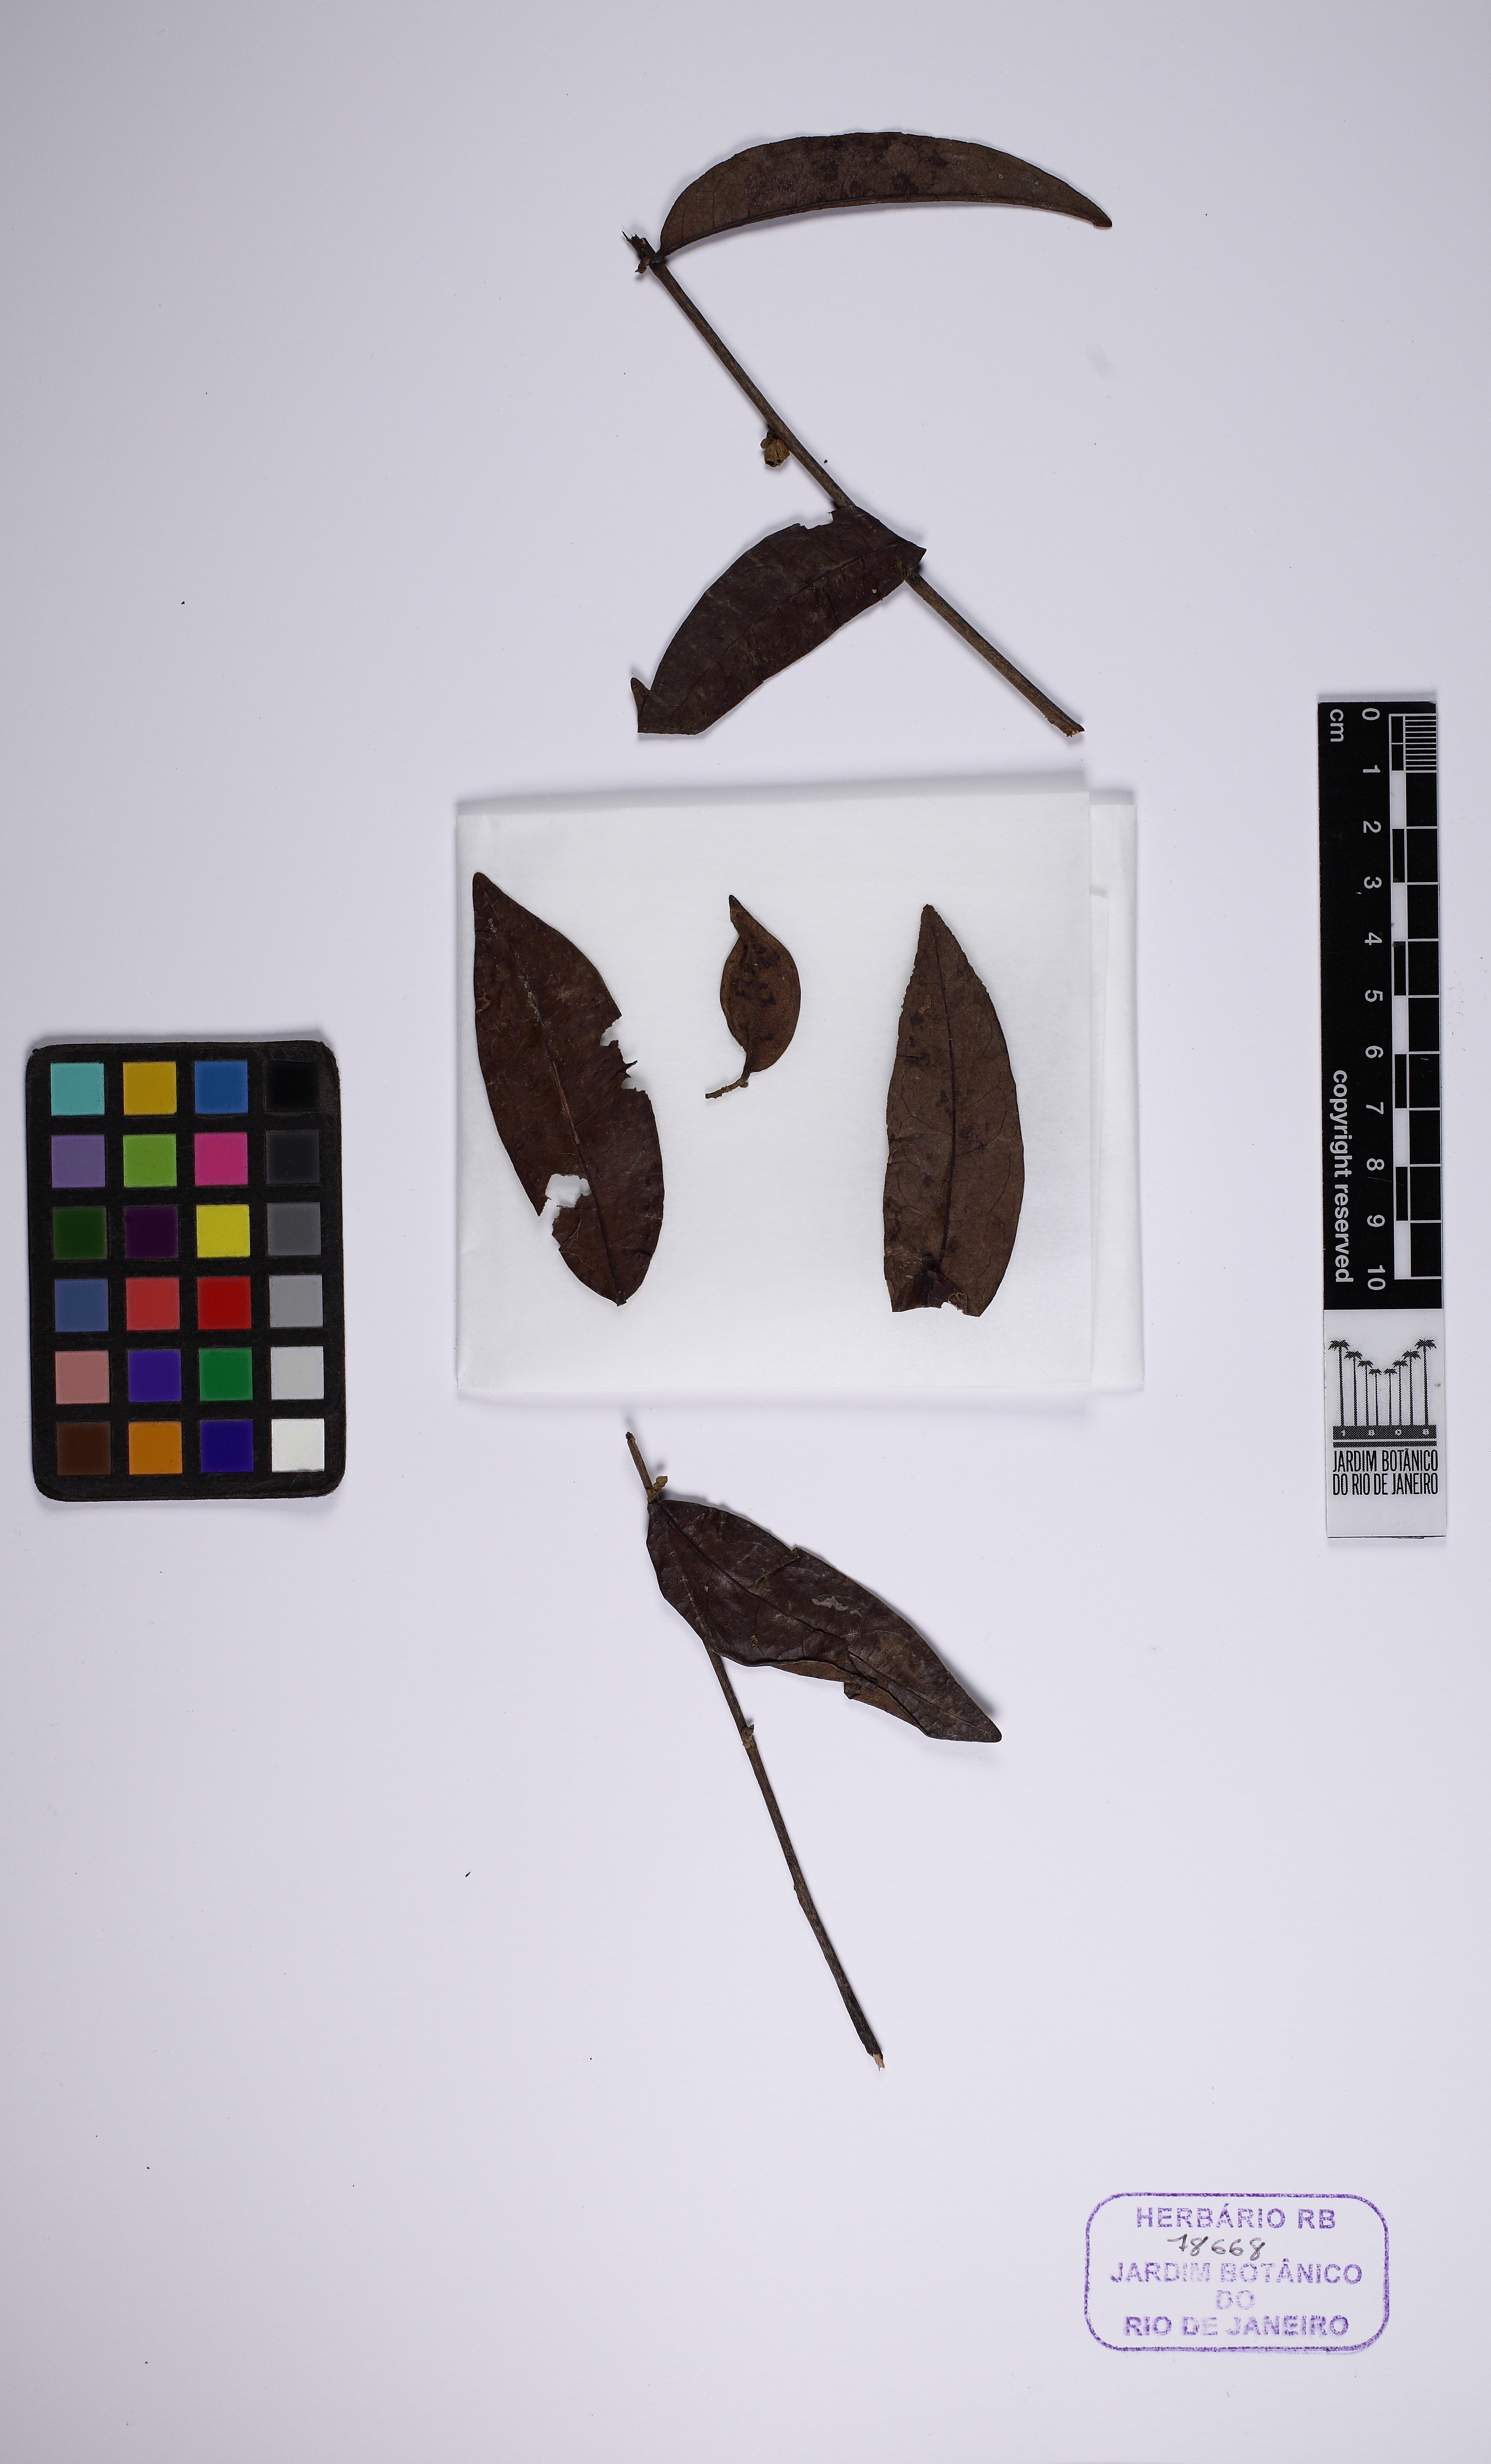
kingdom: Plantae
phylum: Tracheophyta
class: Magnoliopsida
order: Malpighiales
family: Peraceae
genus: Pera
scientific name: Pera distichophylla
